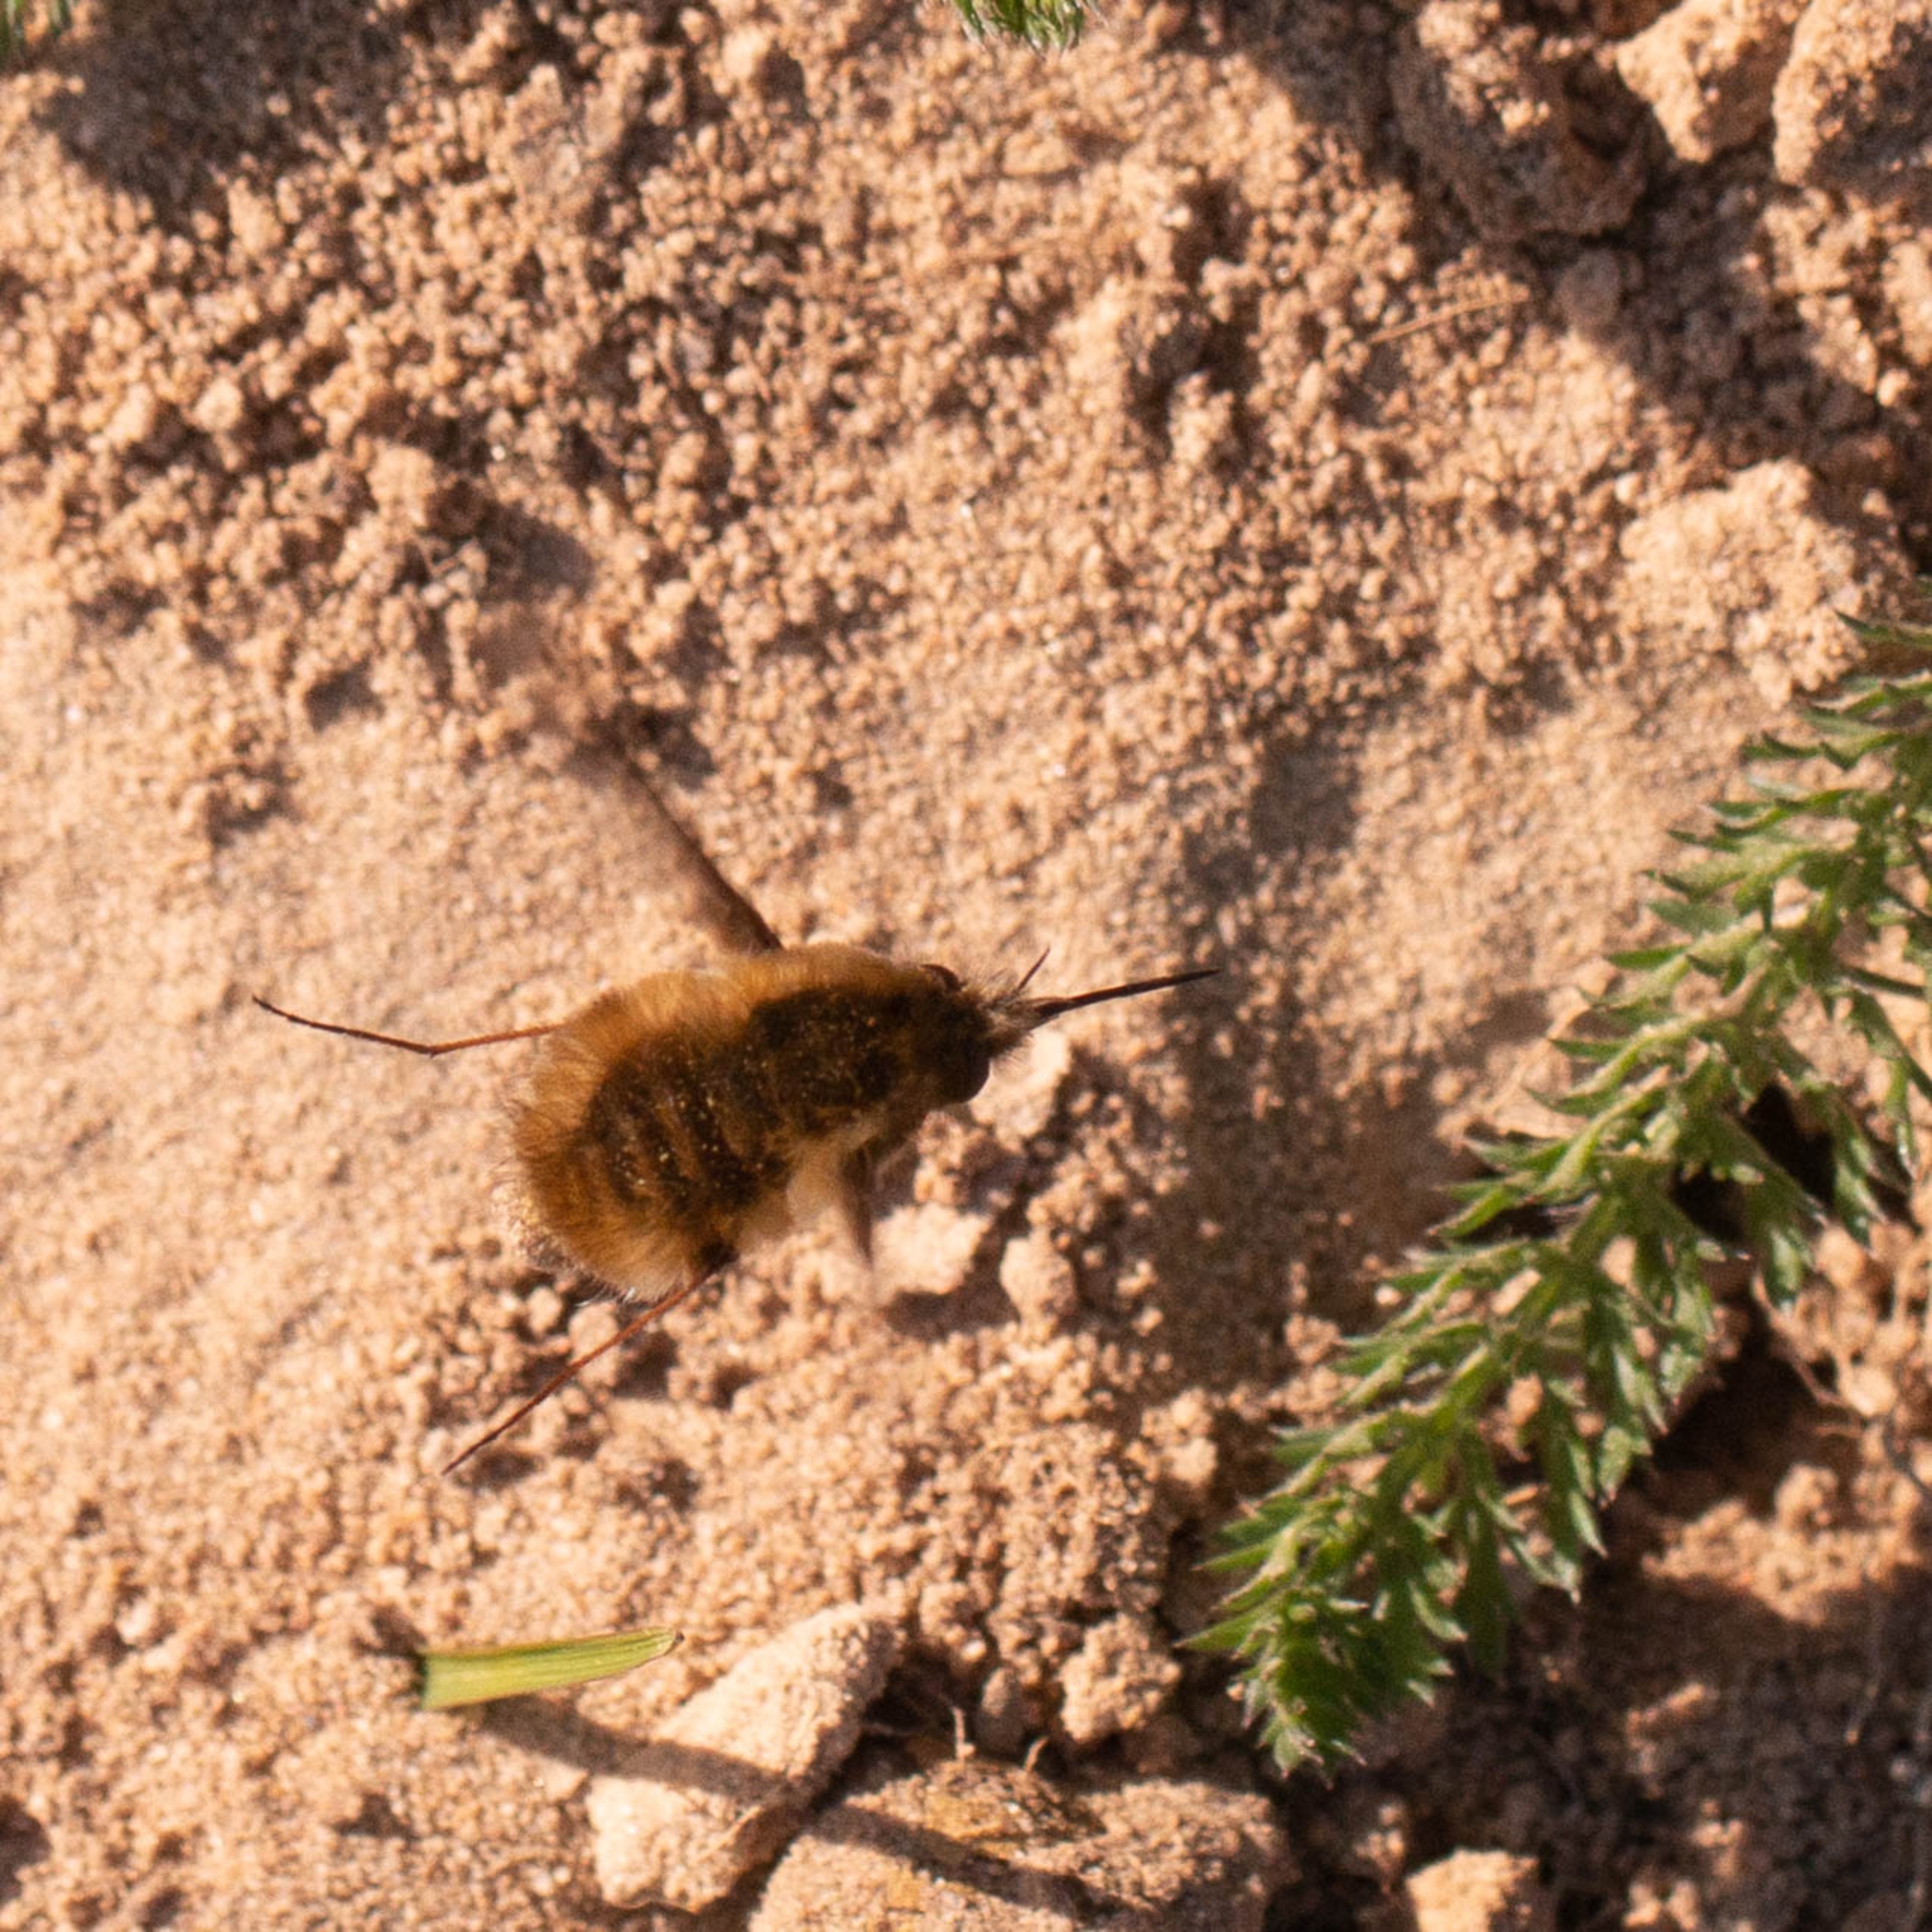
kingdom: Animalia
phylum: Arthropoda
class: Insecta
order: Diptera
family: Bombyliidae
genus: Bombylius
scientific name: Bombylius major
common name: Stor humleflue
